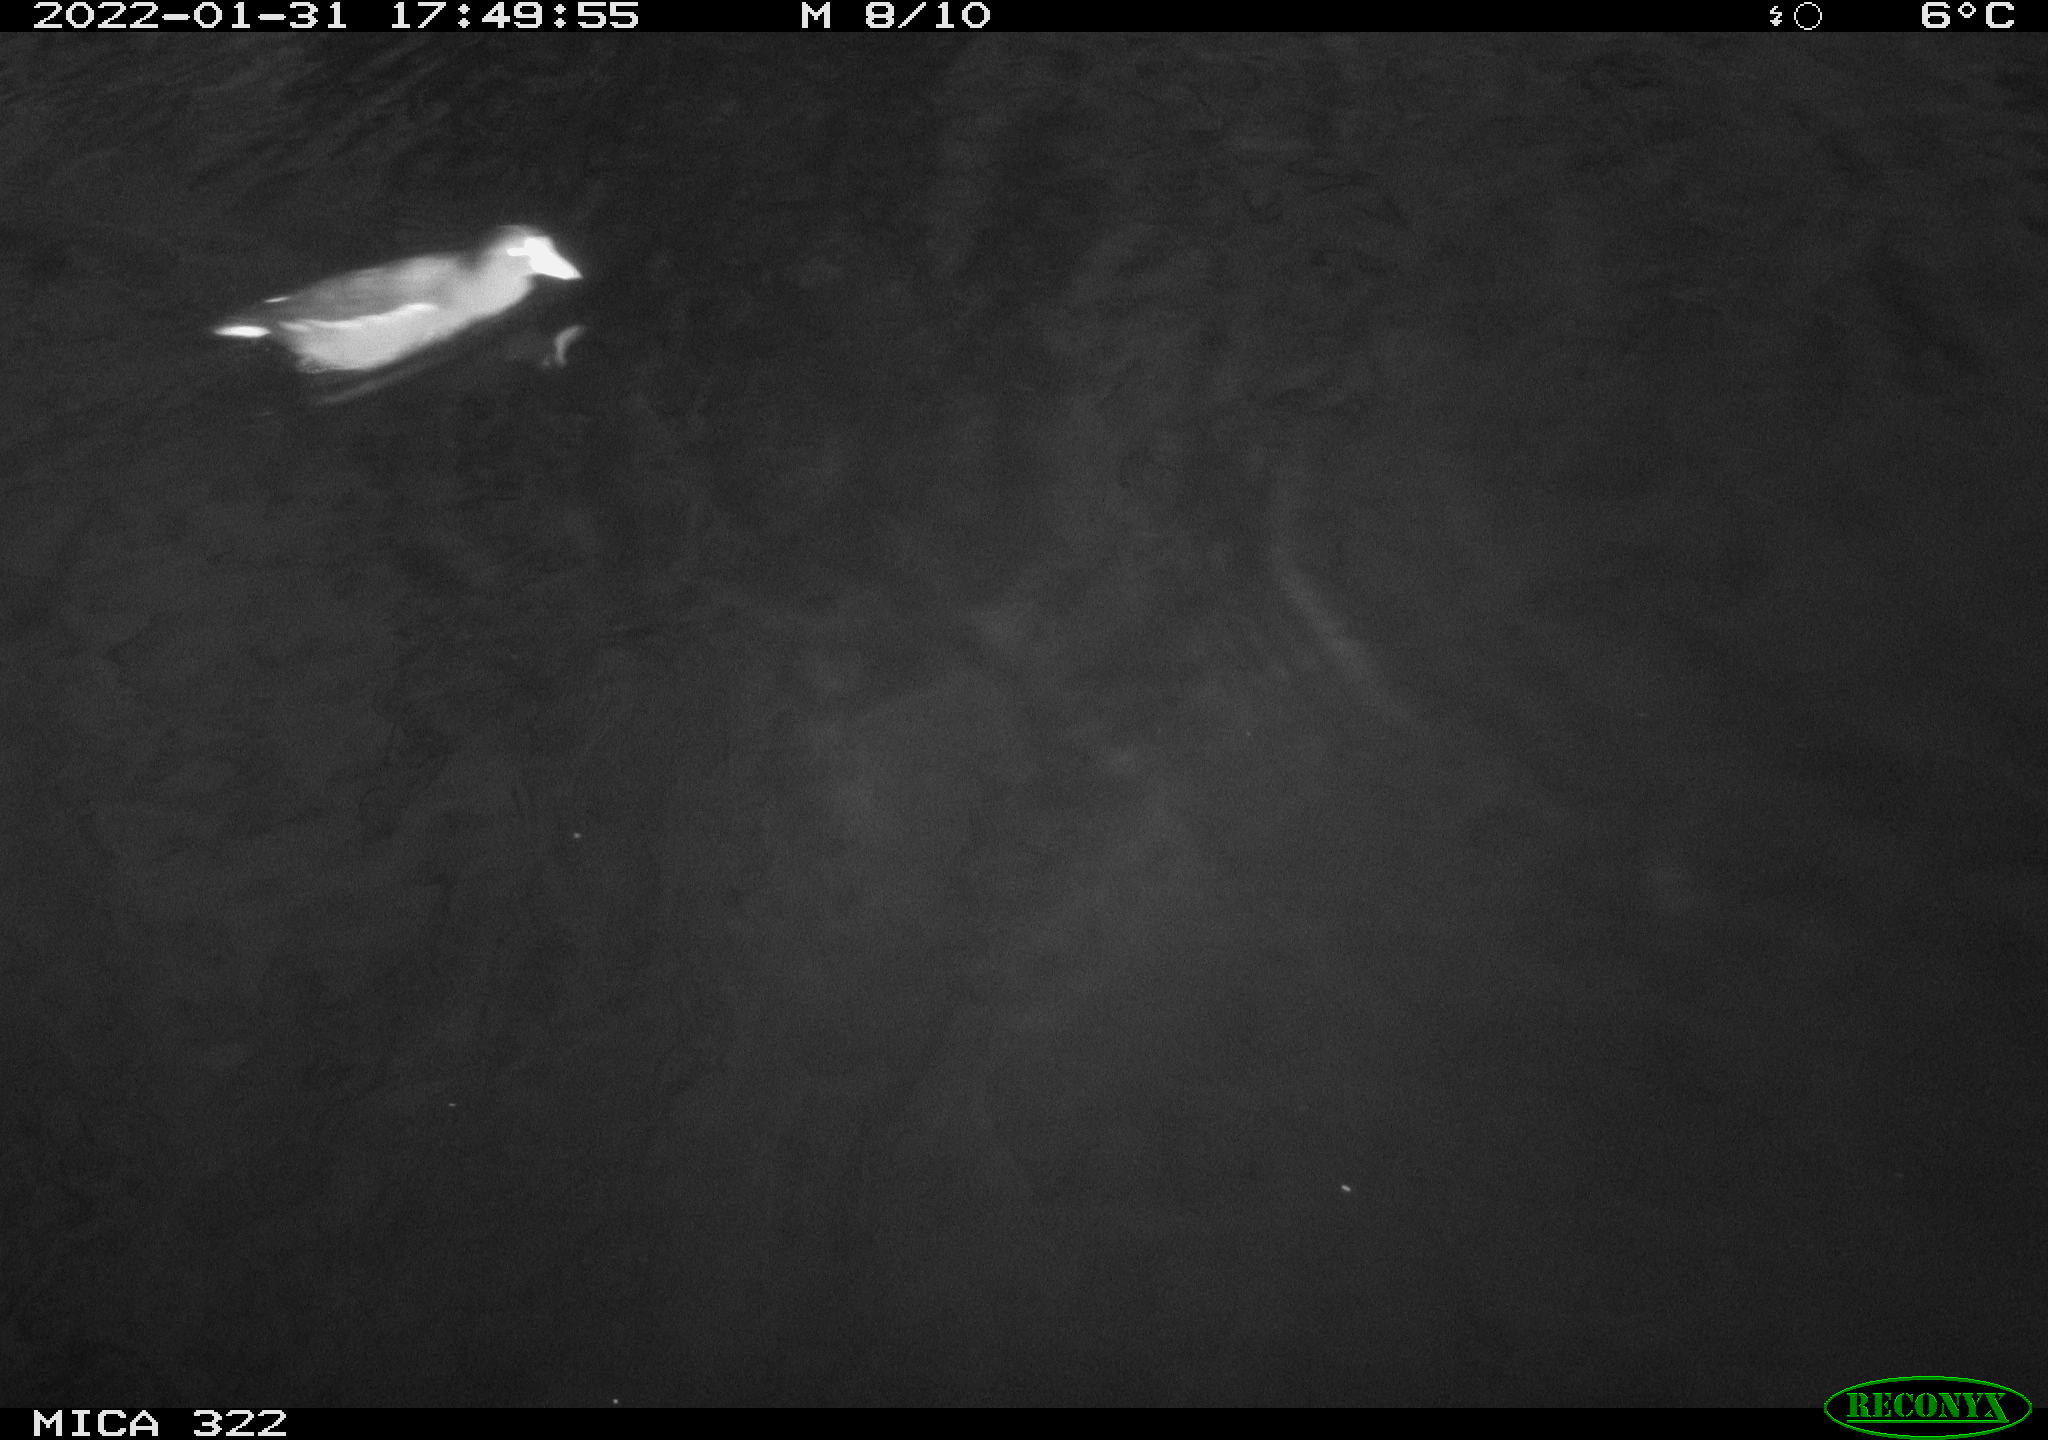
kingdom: Animalia
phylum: Chordata
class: Aves
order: Anseriformes
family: Anatidae
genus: Anas
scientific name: Anas
